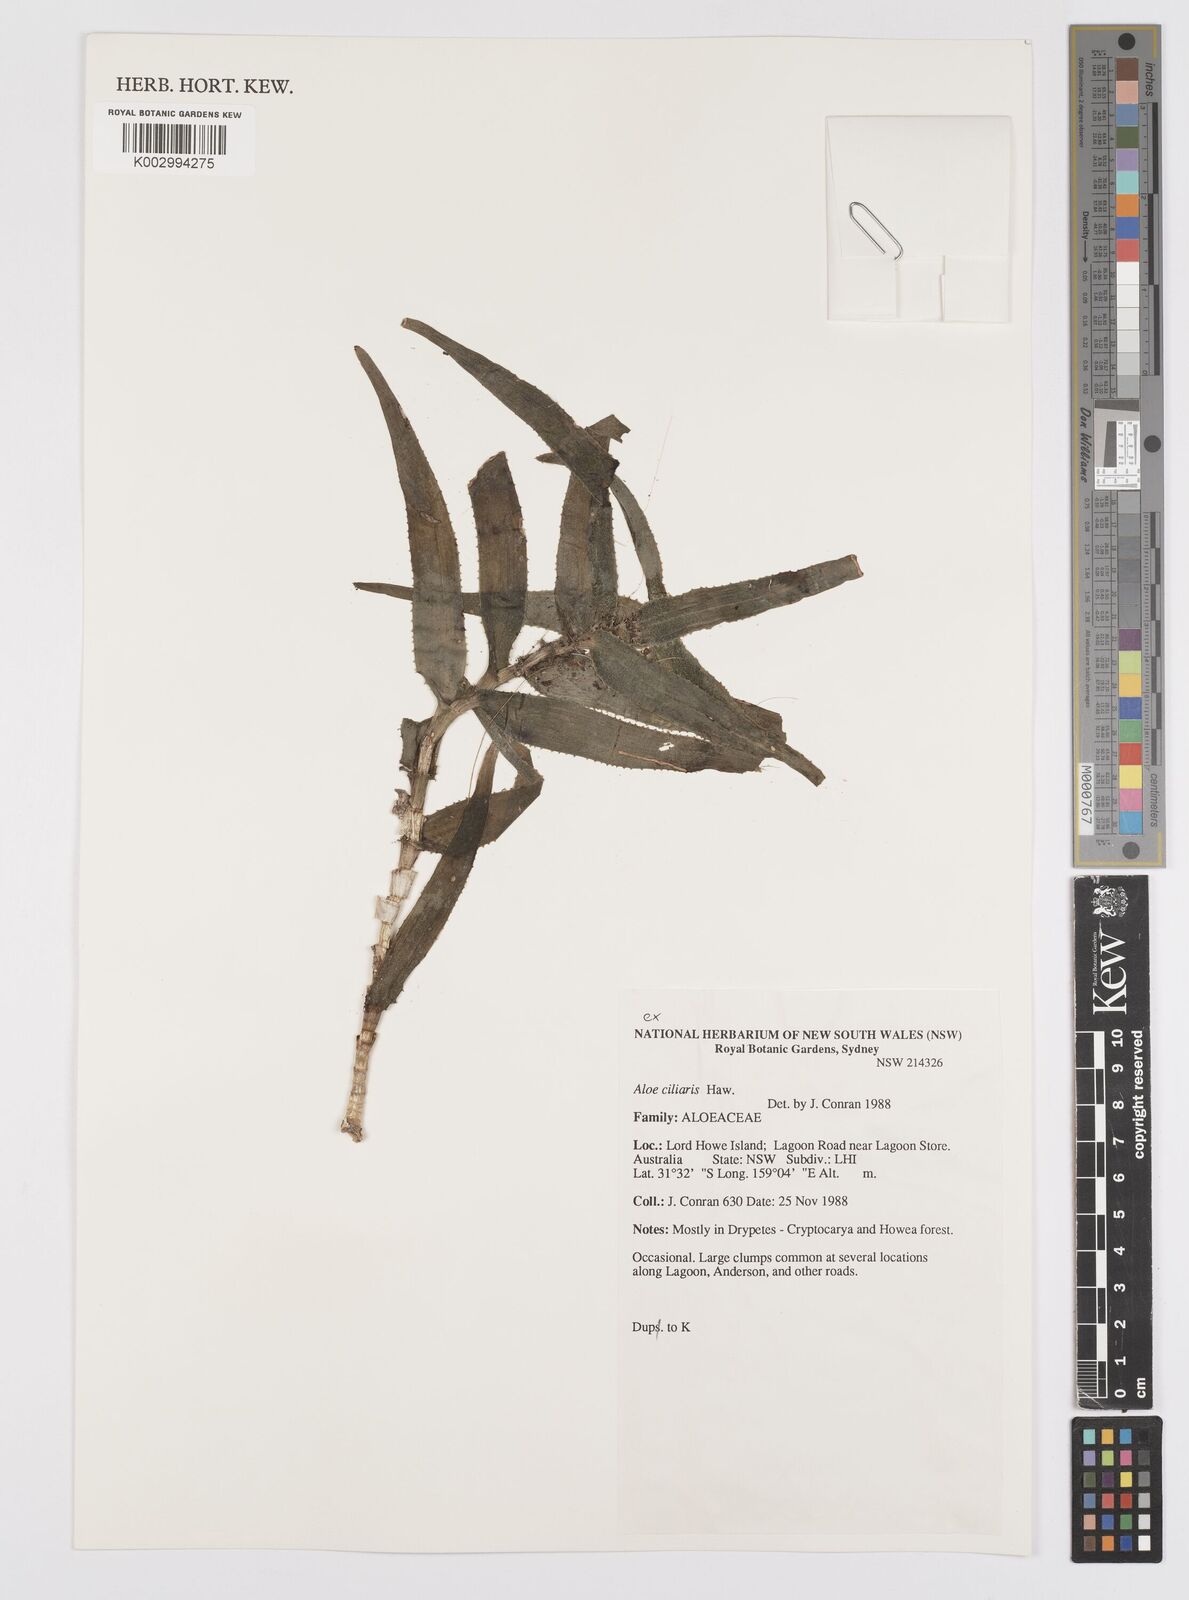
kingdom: Plantae
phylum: Tracheophyta
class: Liliopsida
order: Asparagales
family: Asphodelaceae
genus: Aloiampelos
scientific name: Aloiampelos ciliaris
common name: Climbing aloe
